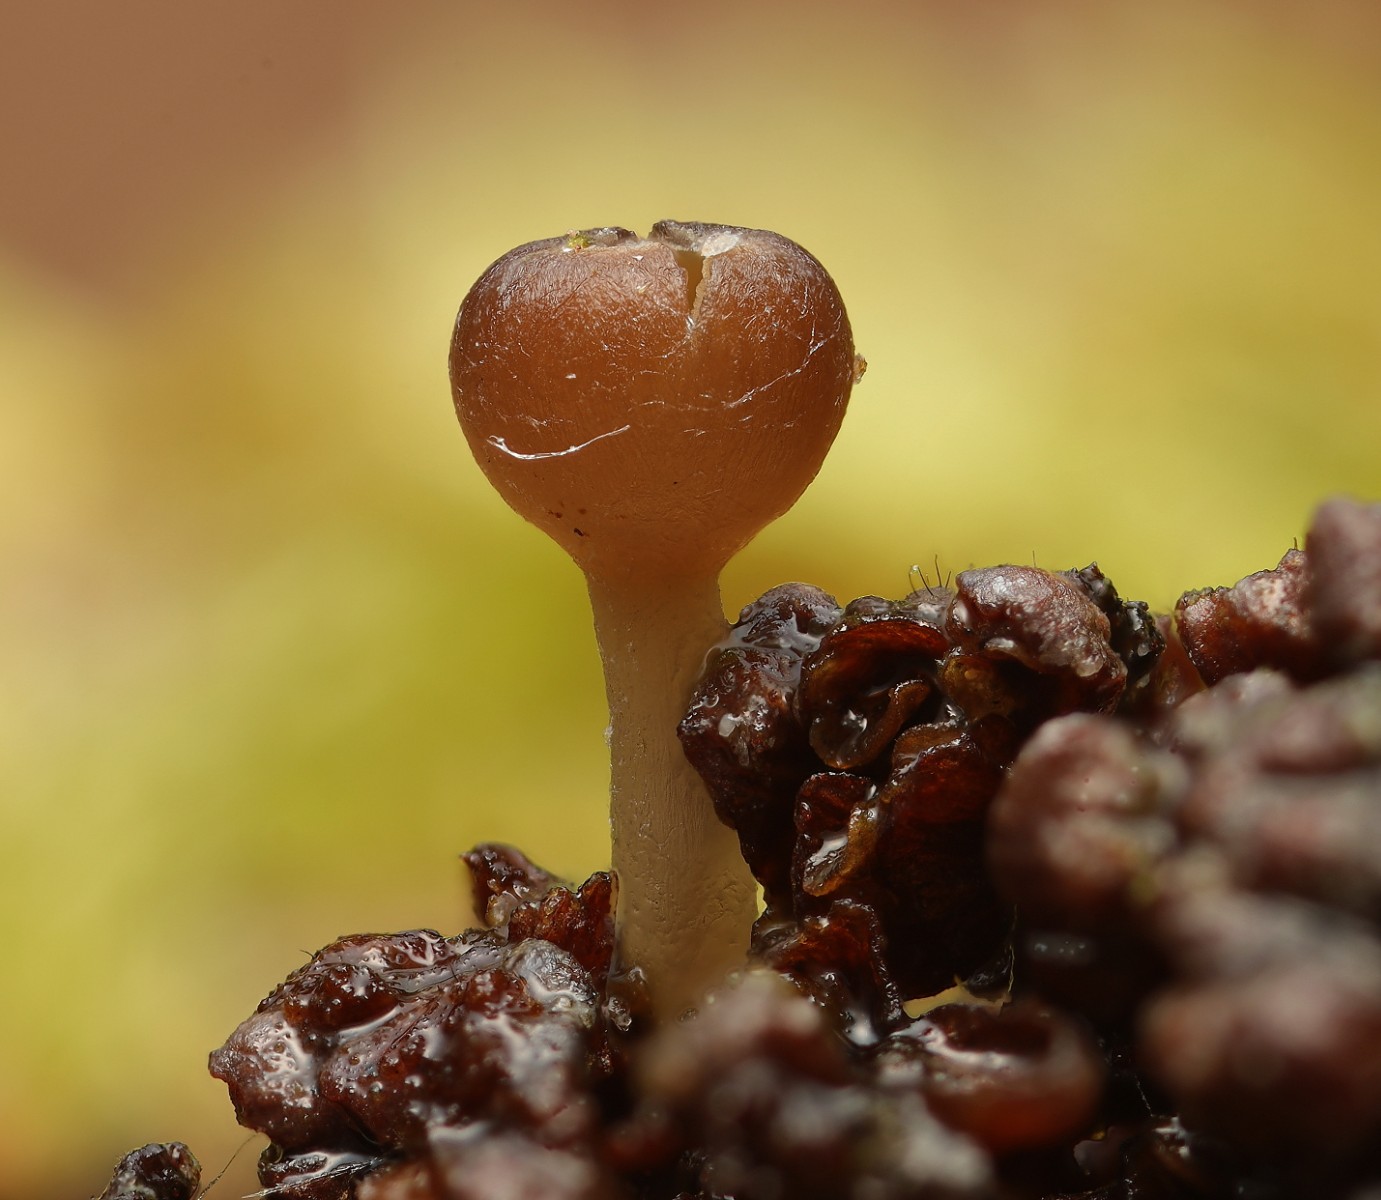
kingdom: Fungi
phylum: Ascomycota
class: Leotiomycetes
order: Helotiales
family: Sclerotiniaceae
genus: Ciboria
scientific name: Ciboria amentacea
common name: ellerakle-knoldskive
